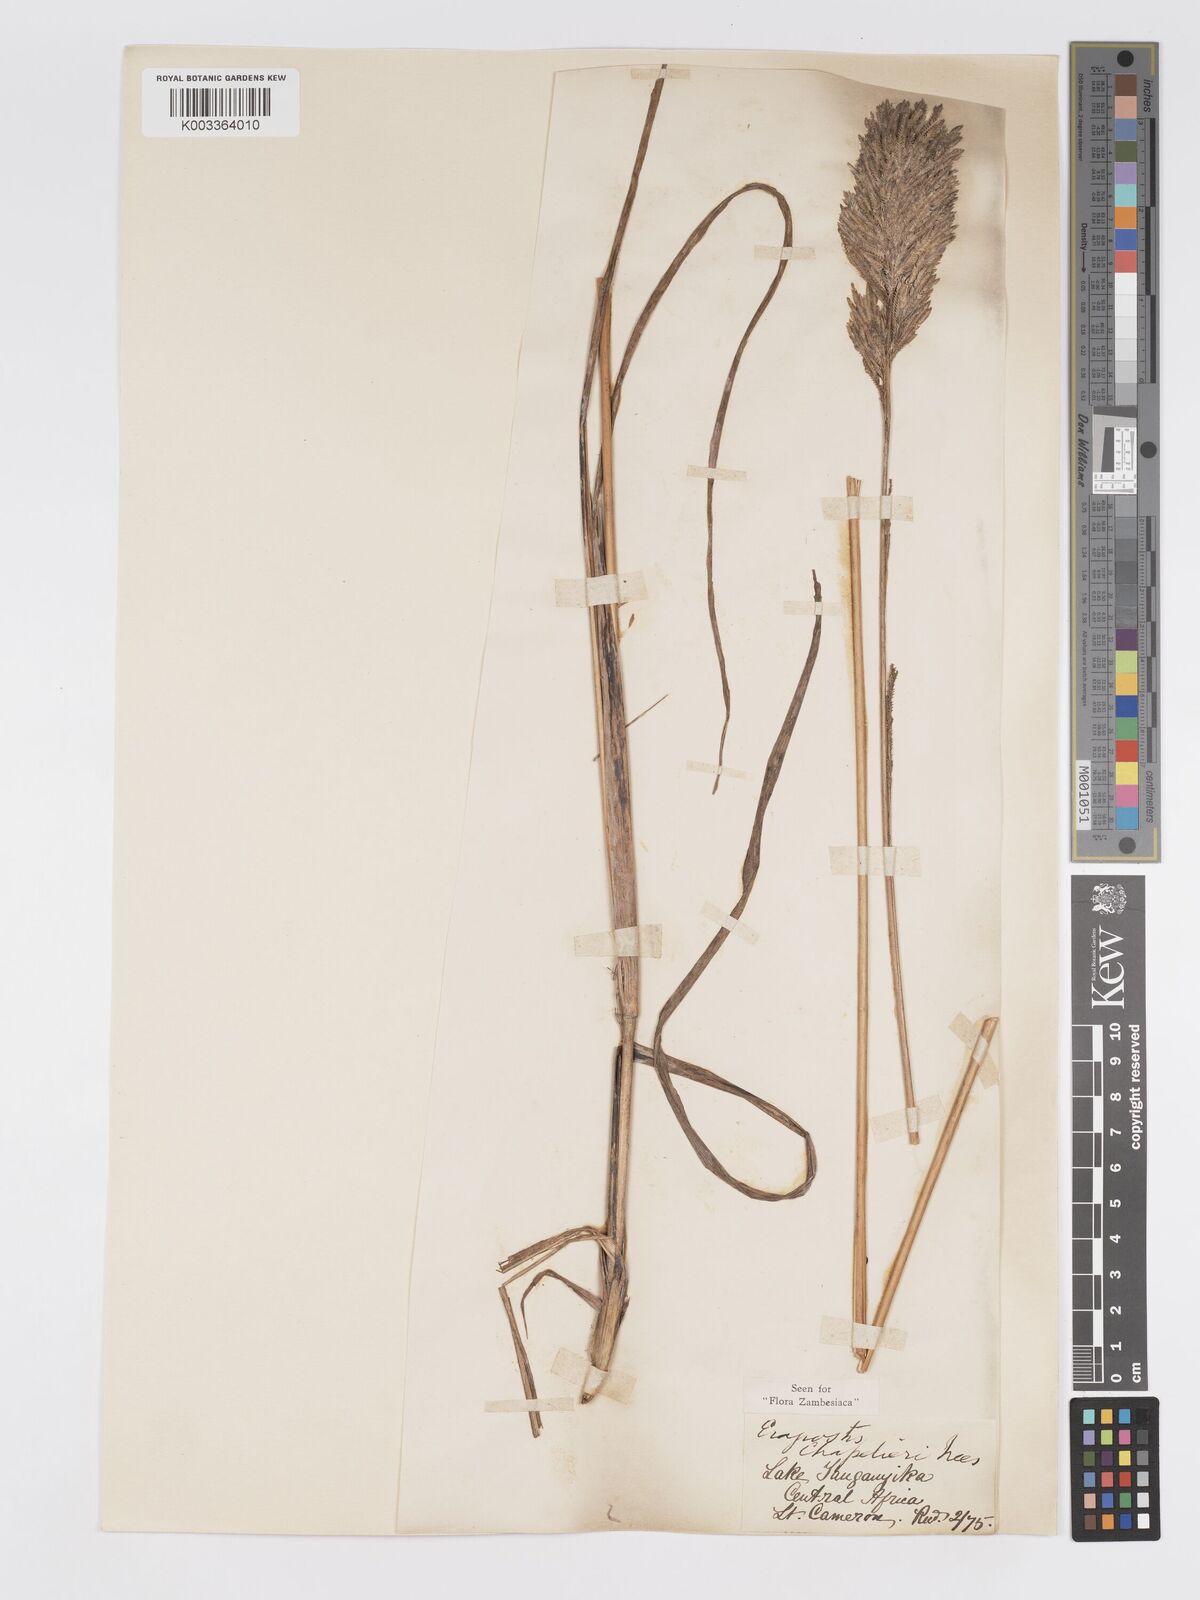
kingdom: Plantae
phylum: Tracheophyta
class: Liliopsida
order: Poales
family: Poaceae
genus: Eragrostis
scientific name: Eragrostis chapelieri
